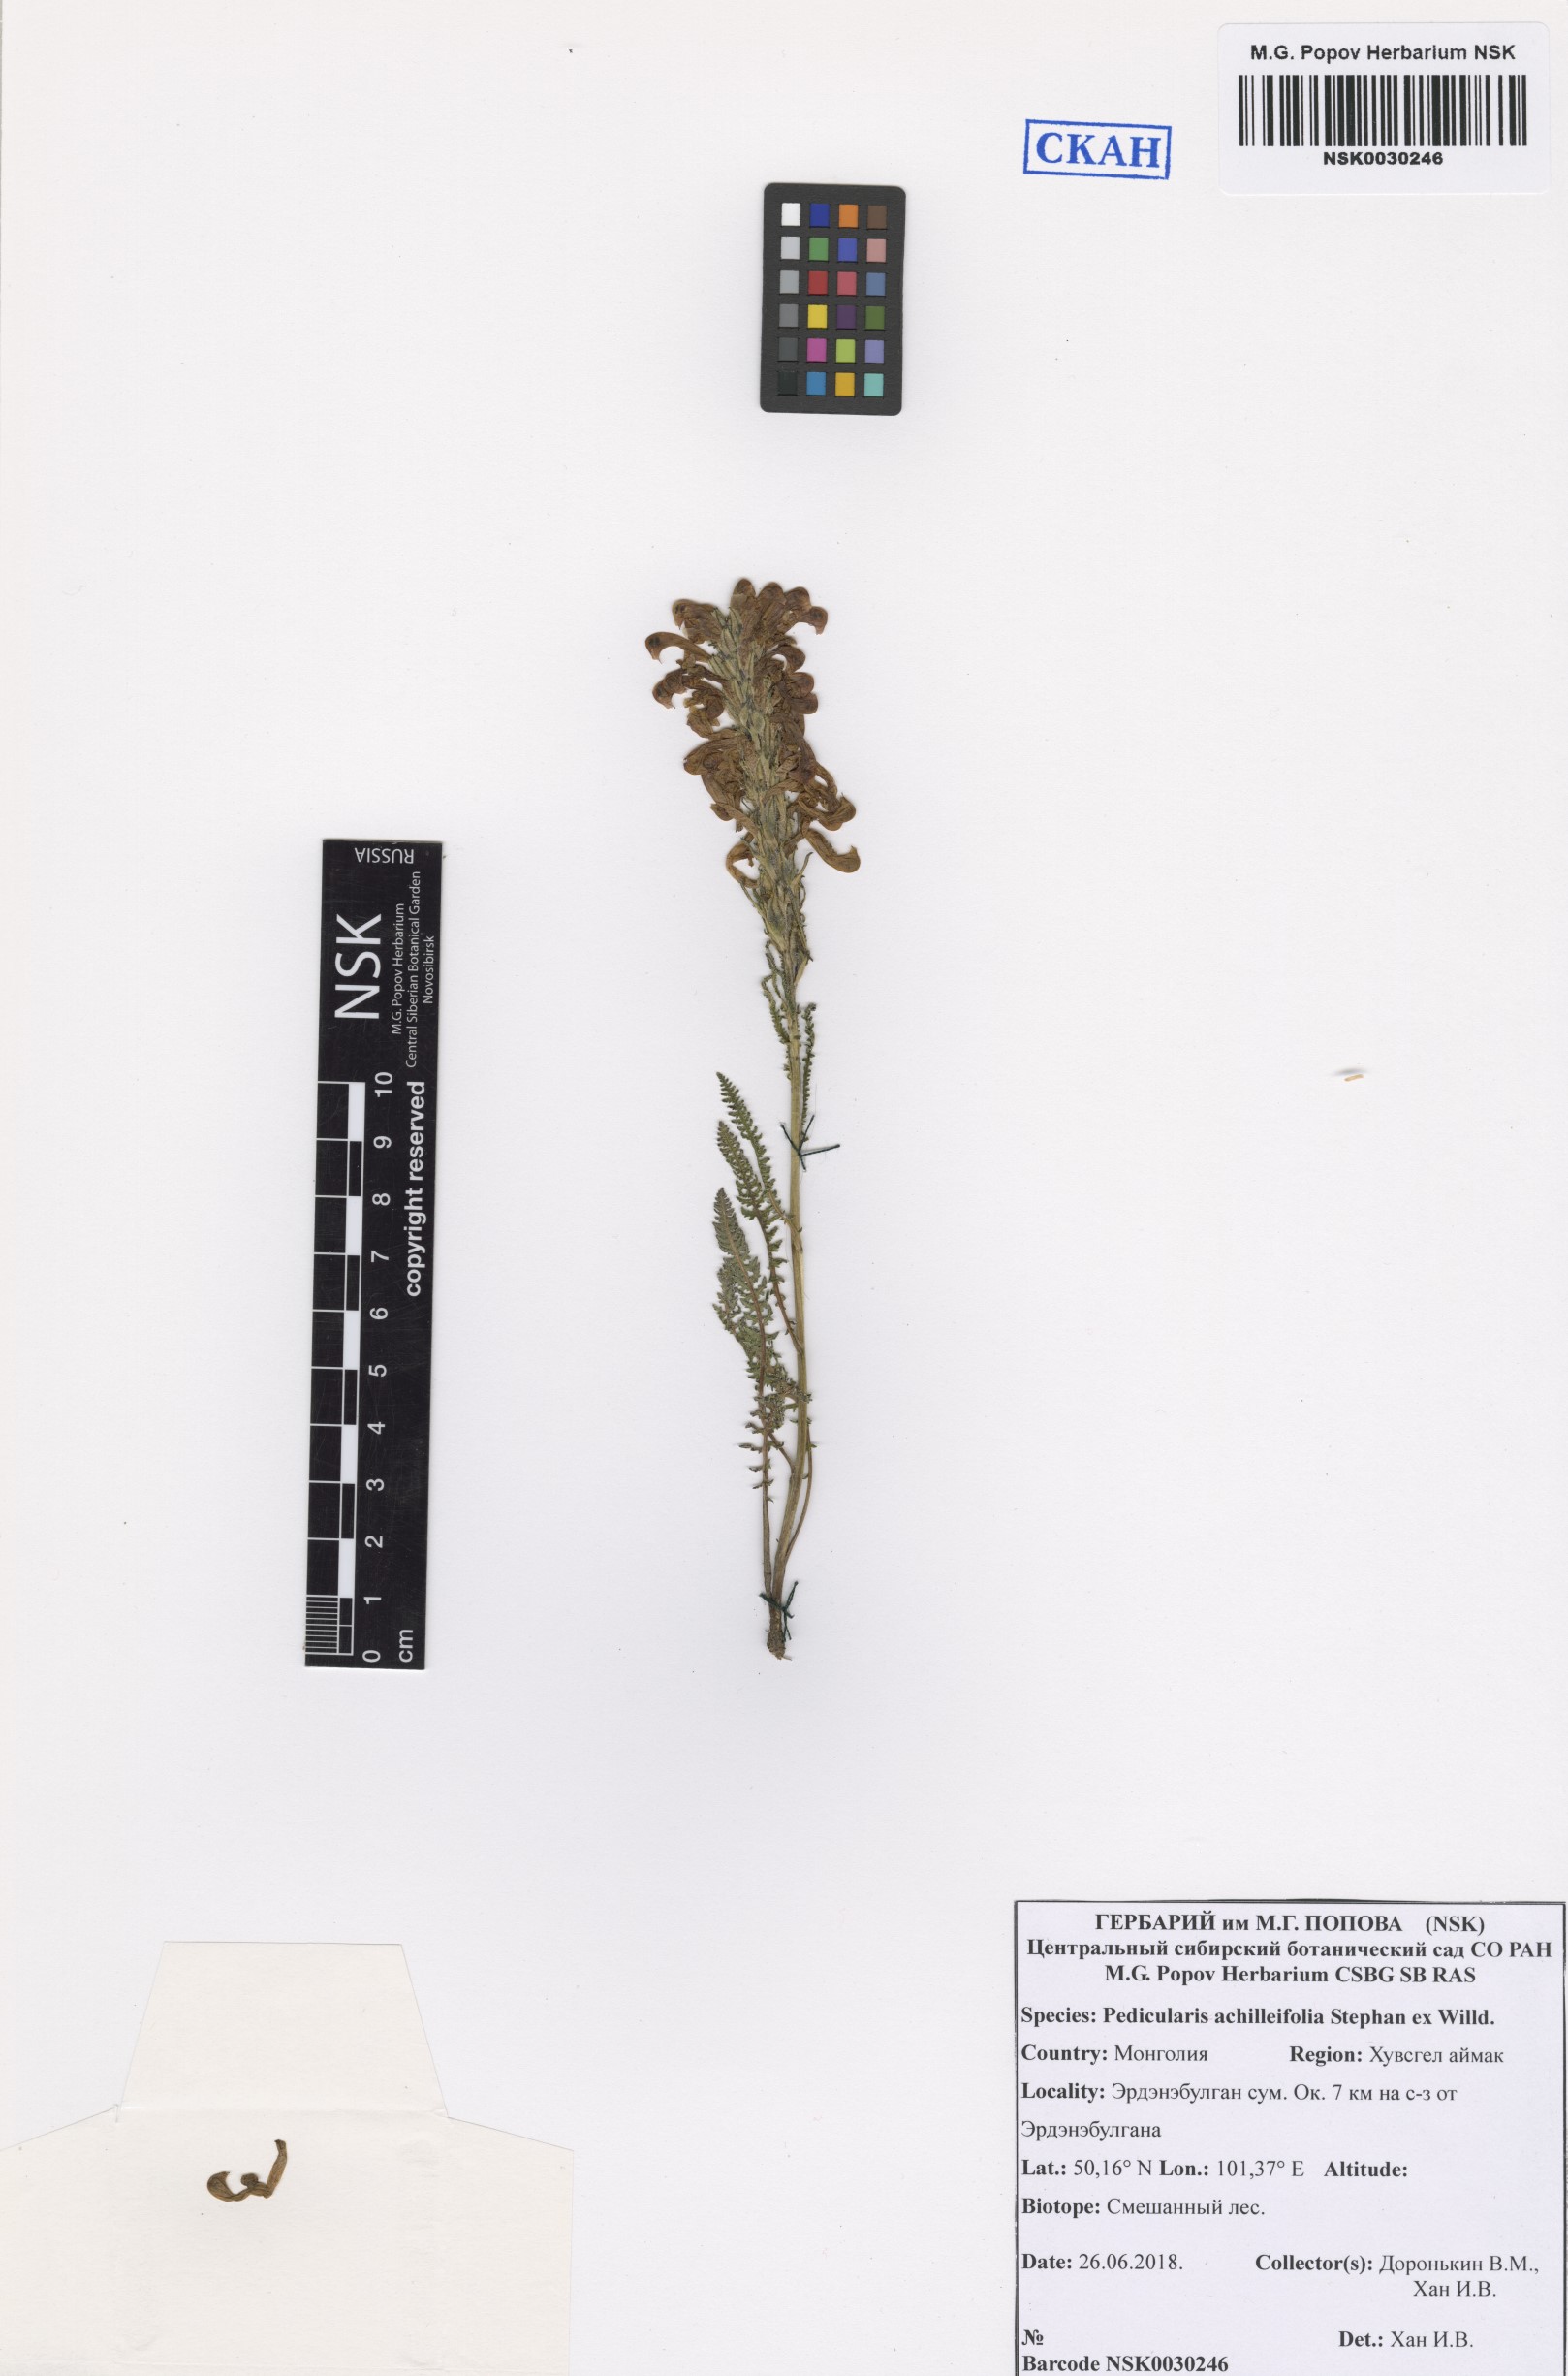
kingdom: Plantae
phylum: Tracheophyta
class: Magnoliopsida
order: Lamiales
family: Orobanchaceae
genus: Pedicularis
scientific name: Pedicularis achilleifolia
